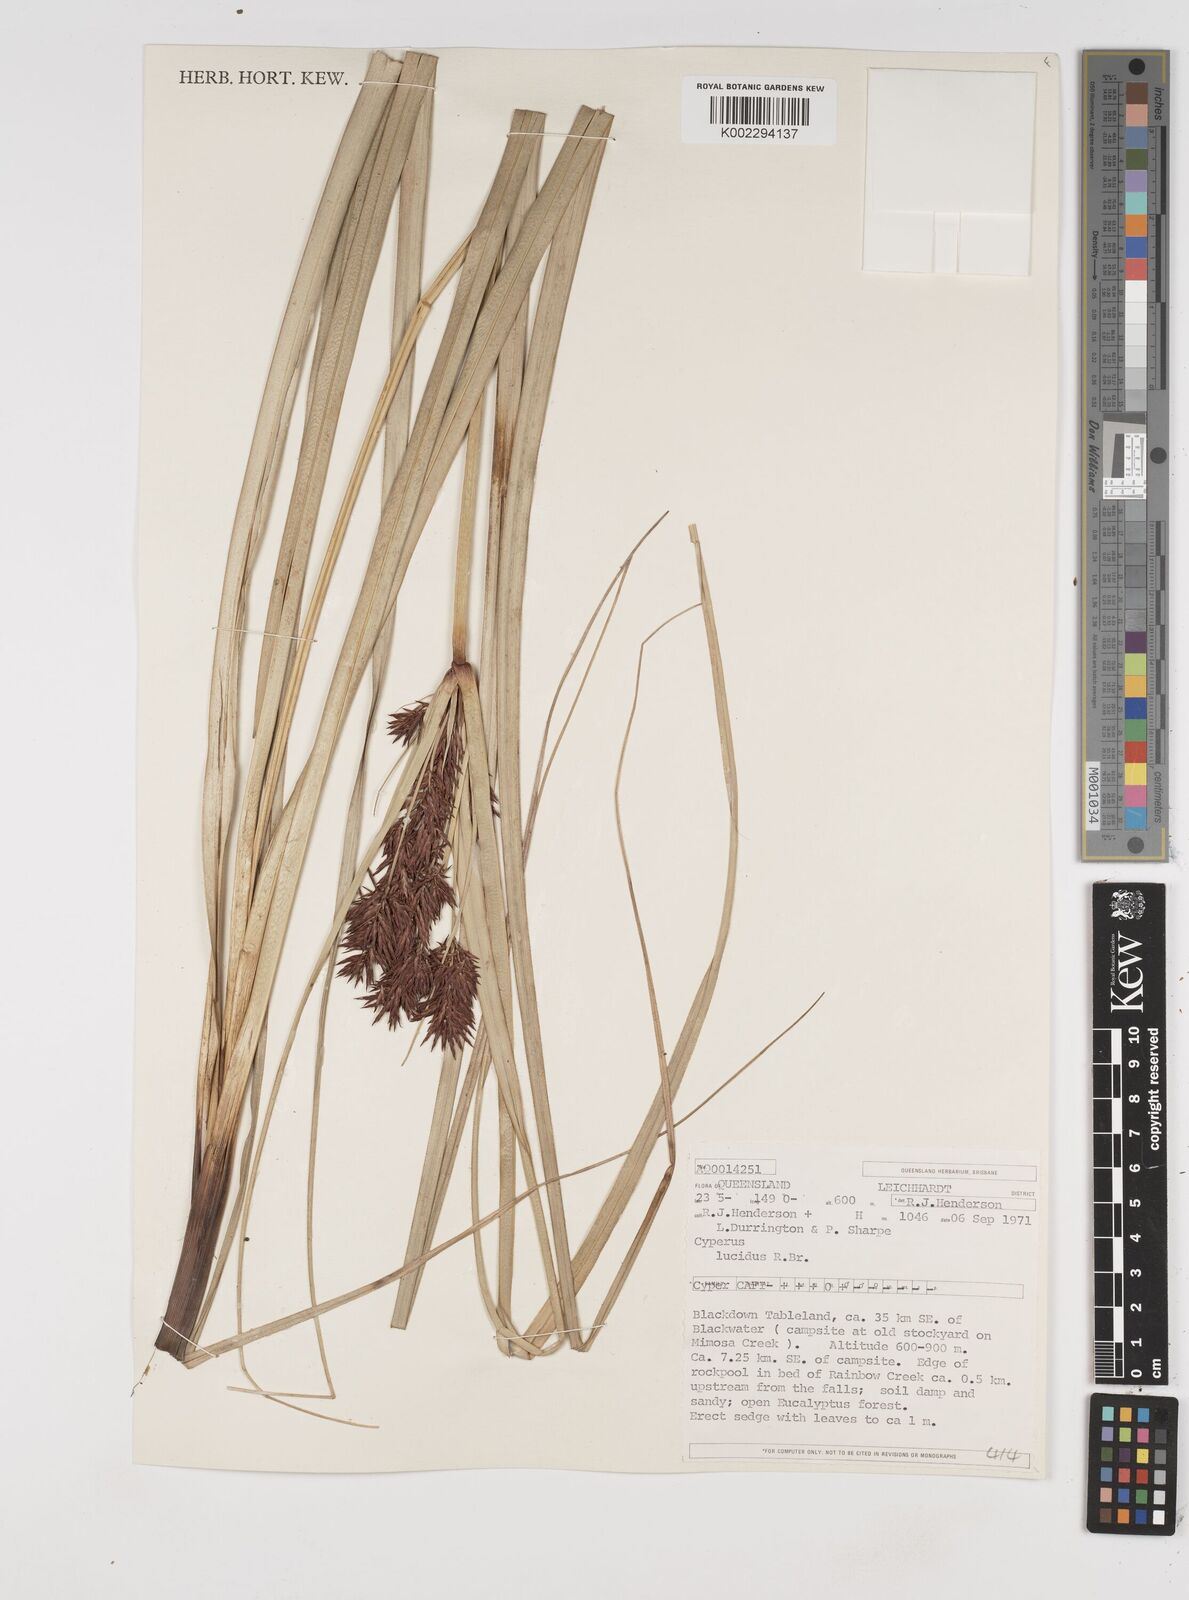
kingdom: Plantae
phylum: Tracheophyta
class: Liliopsida
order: Poales
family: Cyperaceae
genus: Cyperus
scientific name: Cyperus lucidus
